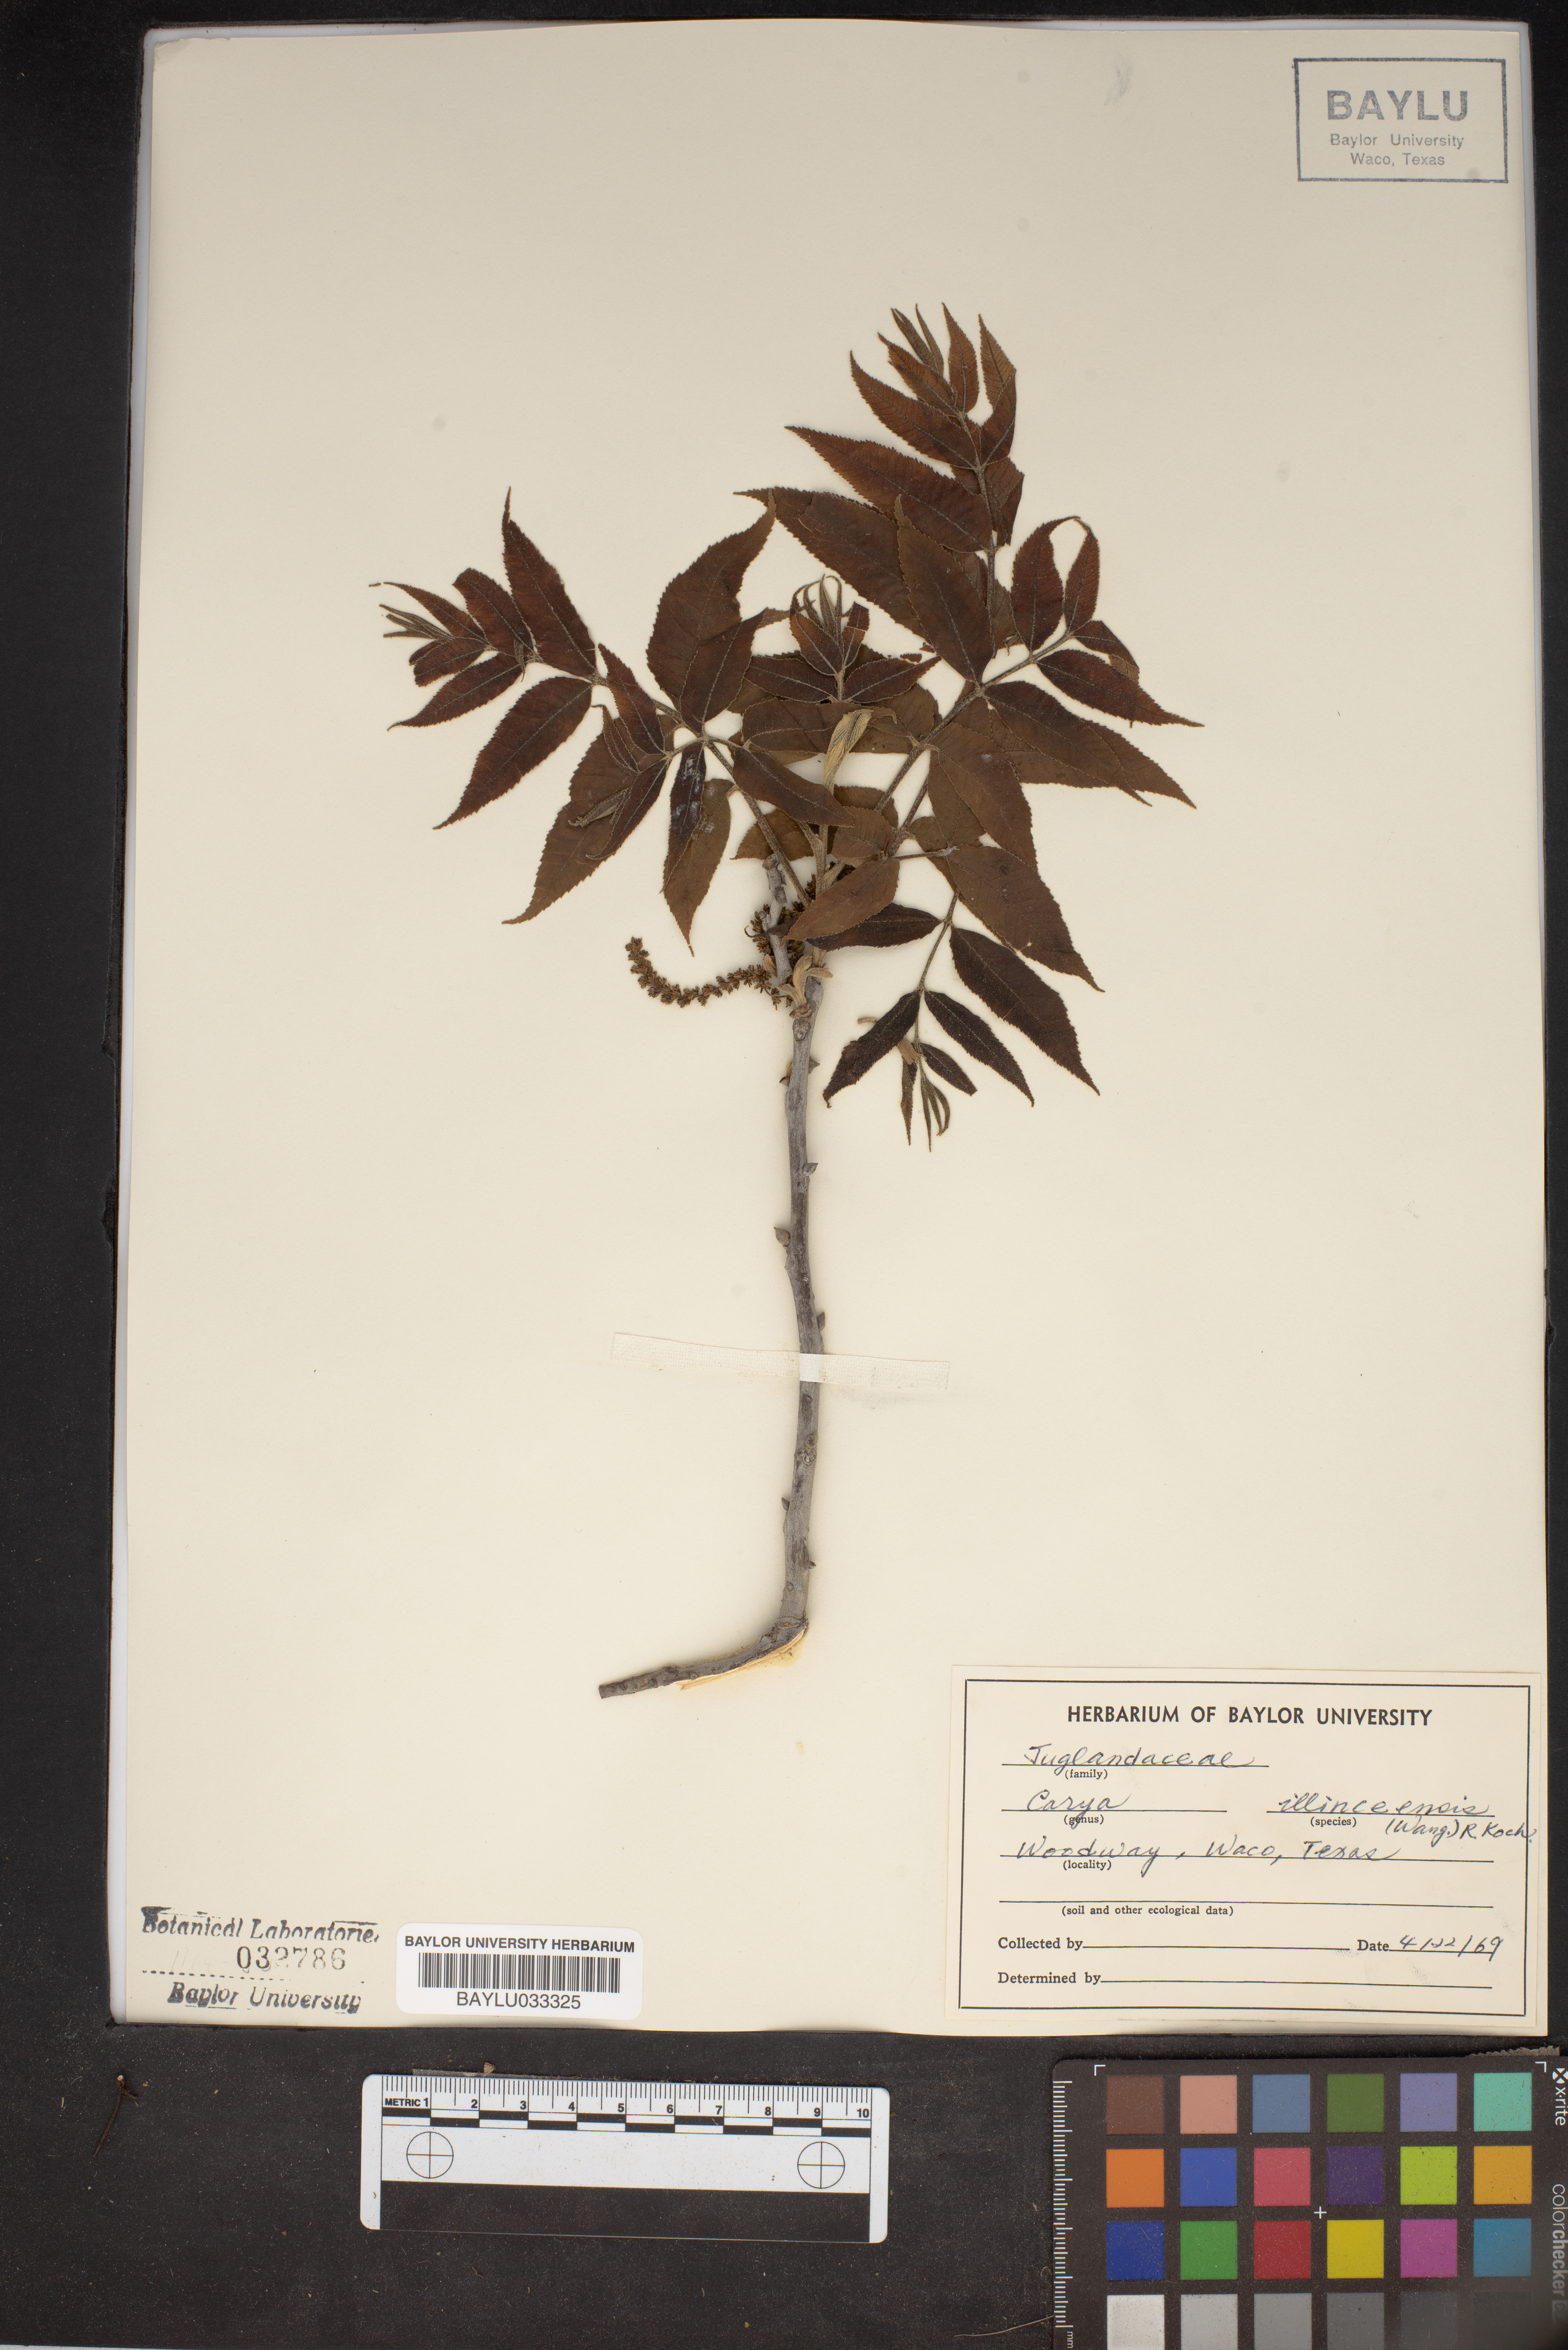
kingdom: Plantae
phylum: Tracheophyta
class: Magnoliopsida
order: Fagales
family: Juglandaceae
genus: Carya
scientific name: Carya illinoinensis
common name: Pecan
